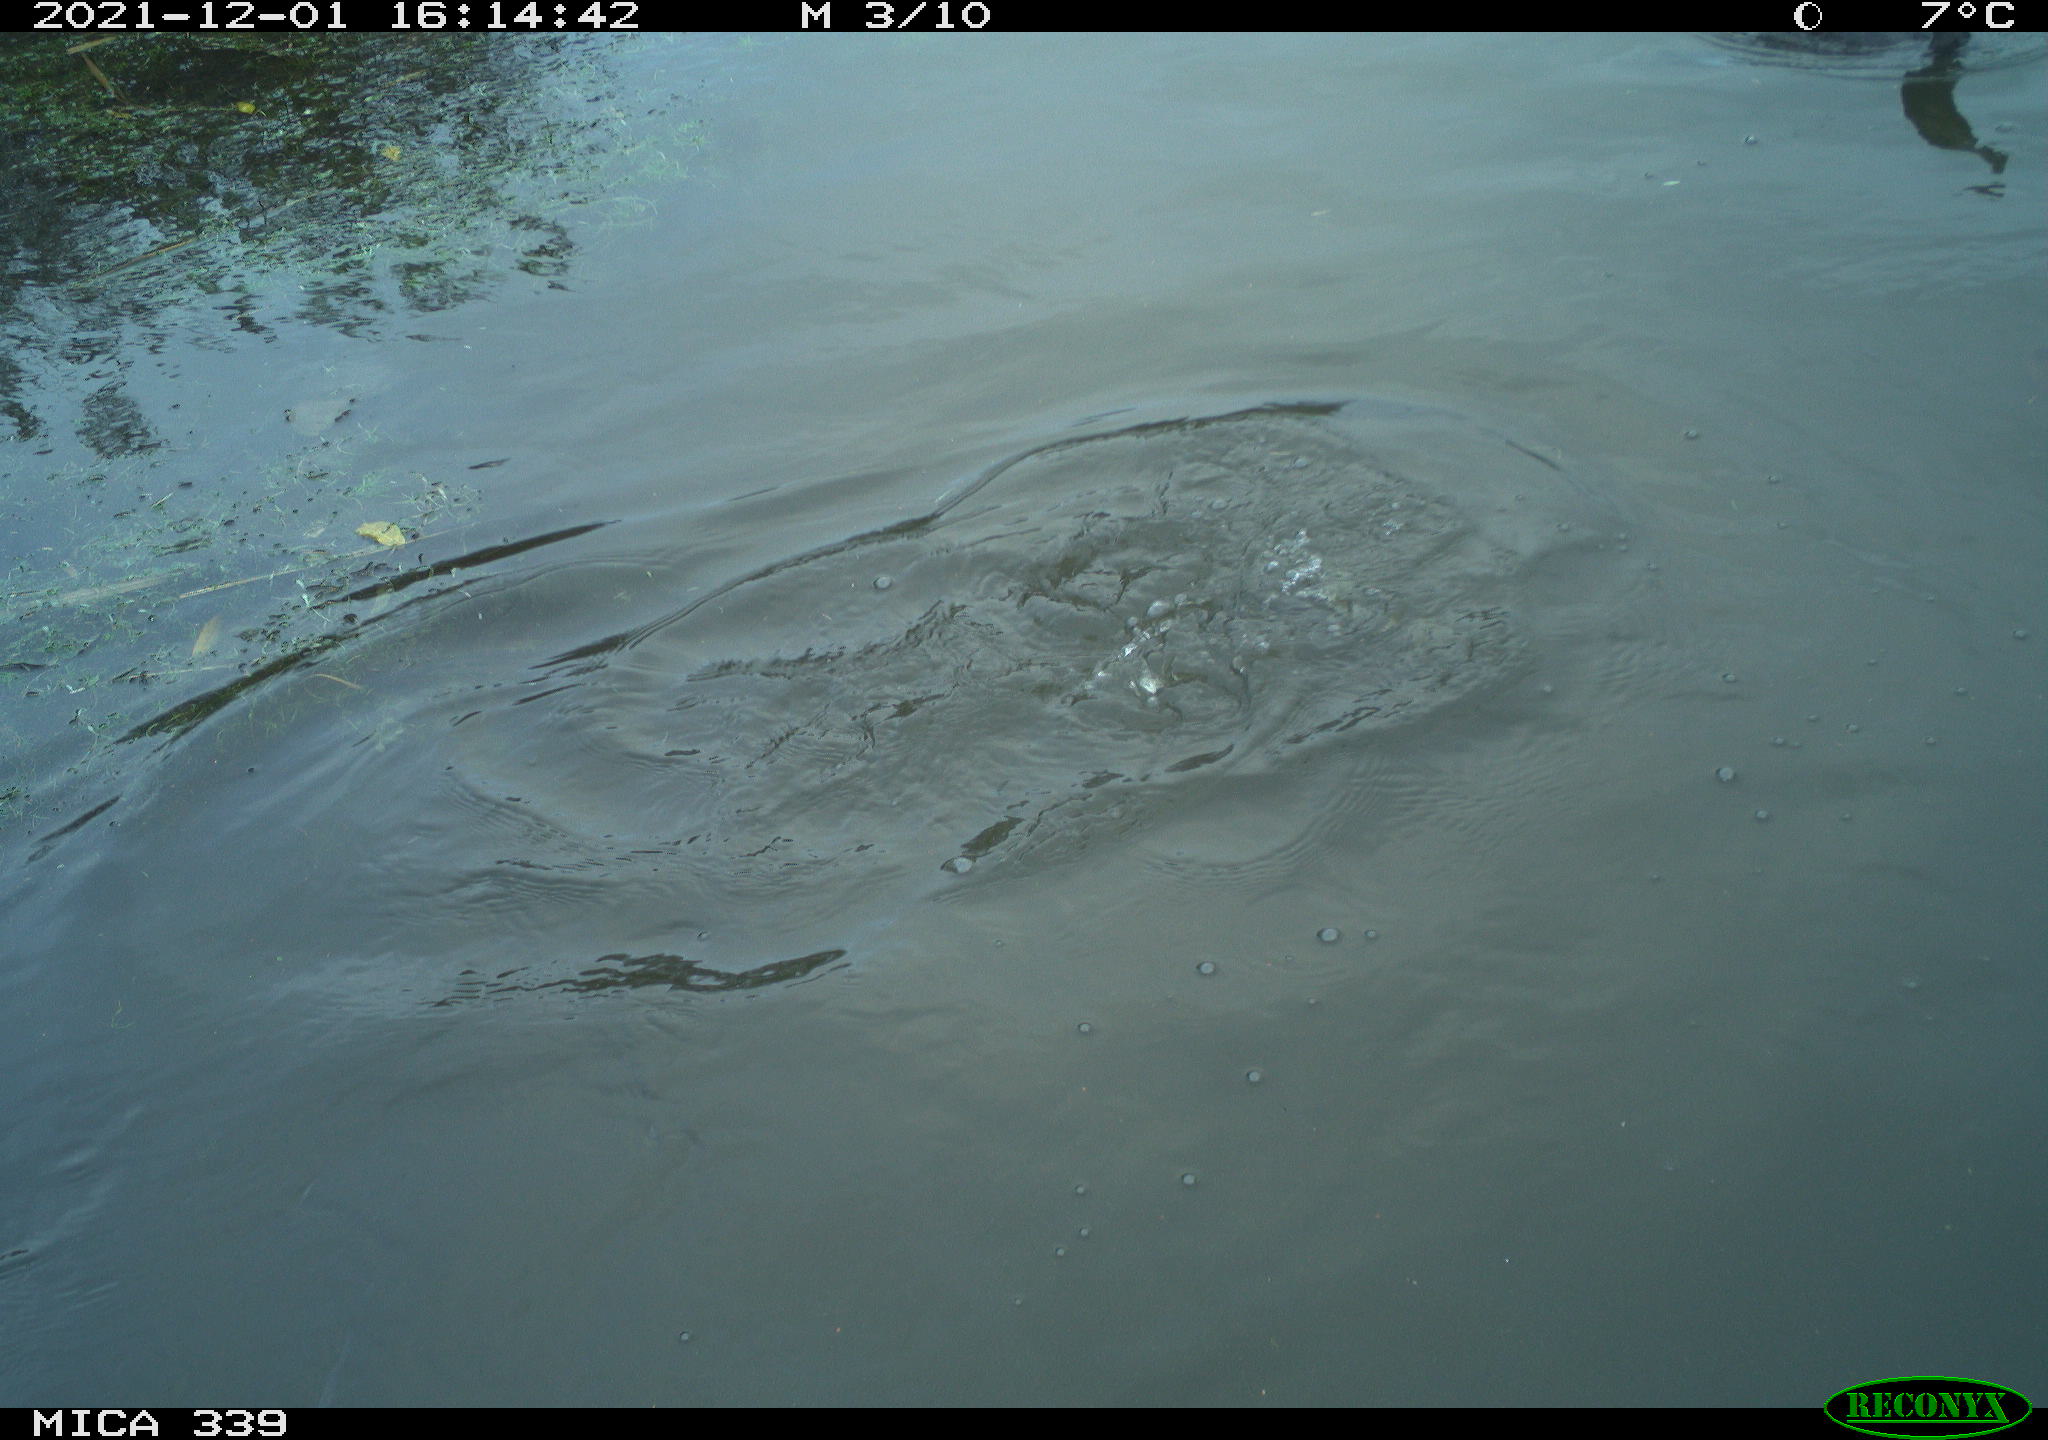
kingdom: Animalia
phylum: Chordata
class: Aves
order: Suliformes
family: Phalacrocoracidae
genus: Phalacrocorax
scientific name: Phalacrocorax carbo
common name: Great cormorant
